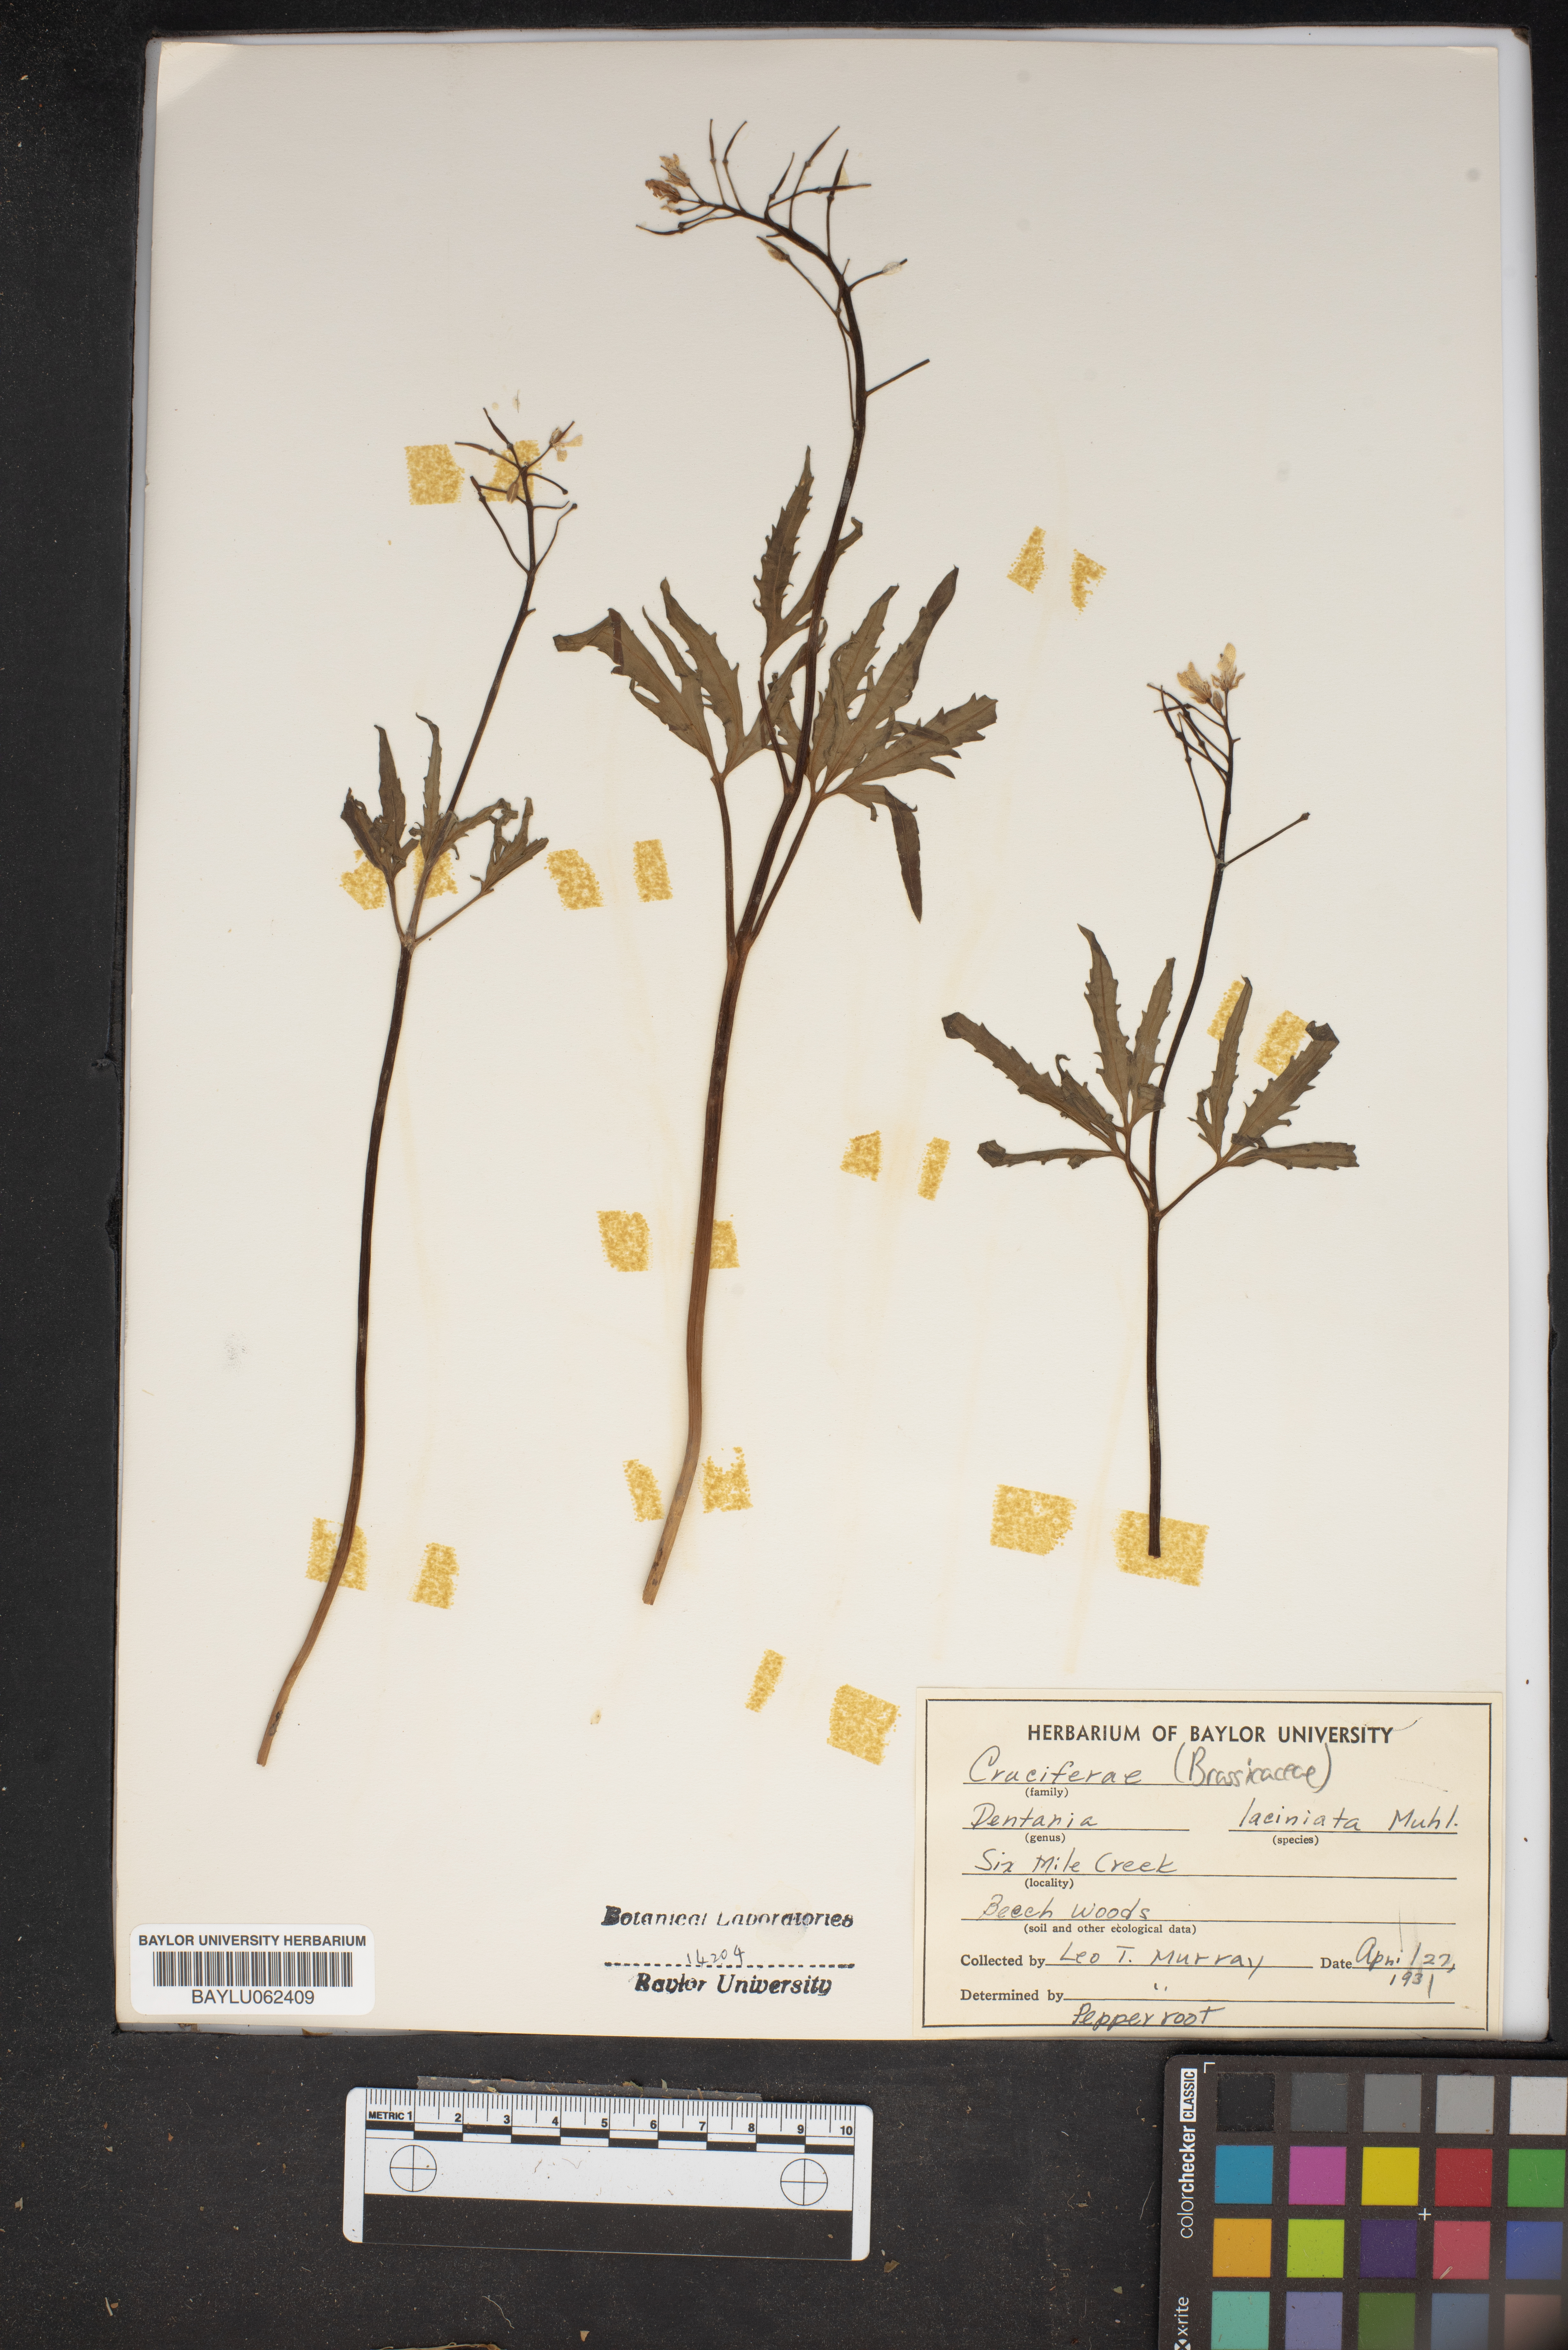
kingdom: Plantae
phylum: Tracheophyta
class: Magnoliopsida
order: Brassicales
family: Brassicaceae
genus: Cardamine
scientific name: Cardamine concatenata
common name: Cut-leaf toothcup
